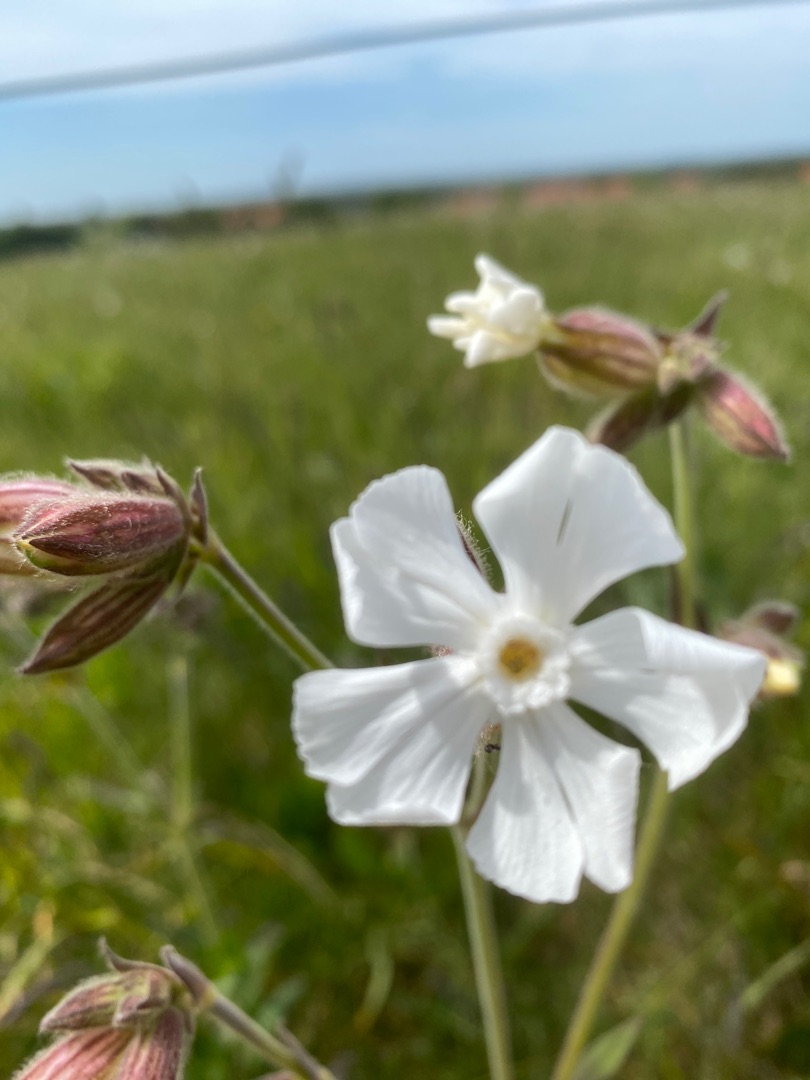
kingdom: Plantae
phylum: Tracheophyta
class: Magnoliopsida
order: Caryophyllales
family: Caryophyllaceae
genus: Silene
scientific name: Silene latifolia
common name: Aftenpragtstjerne
